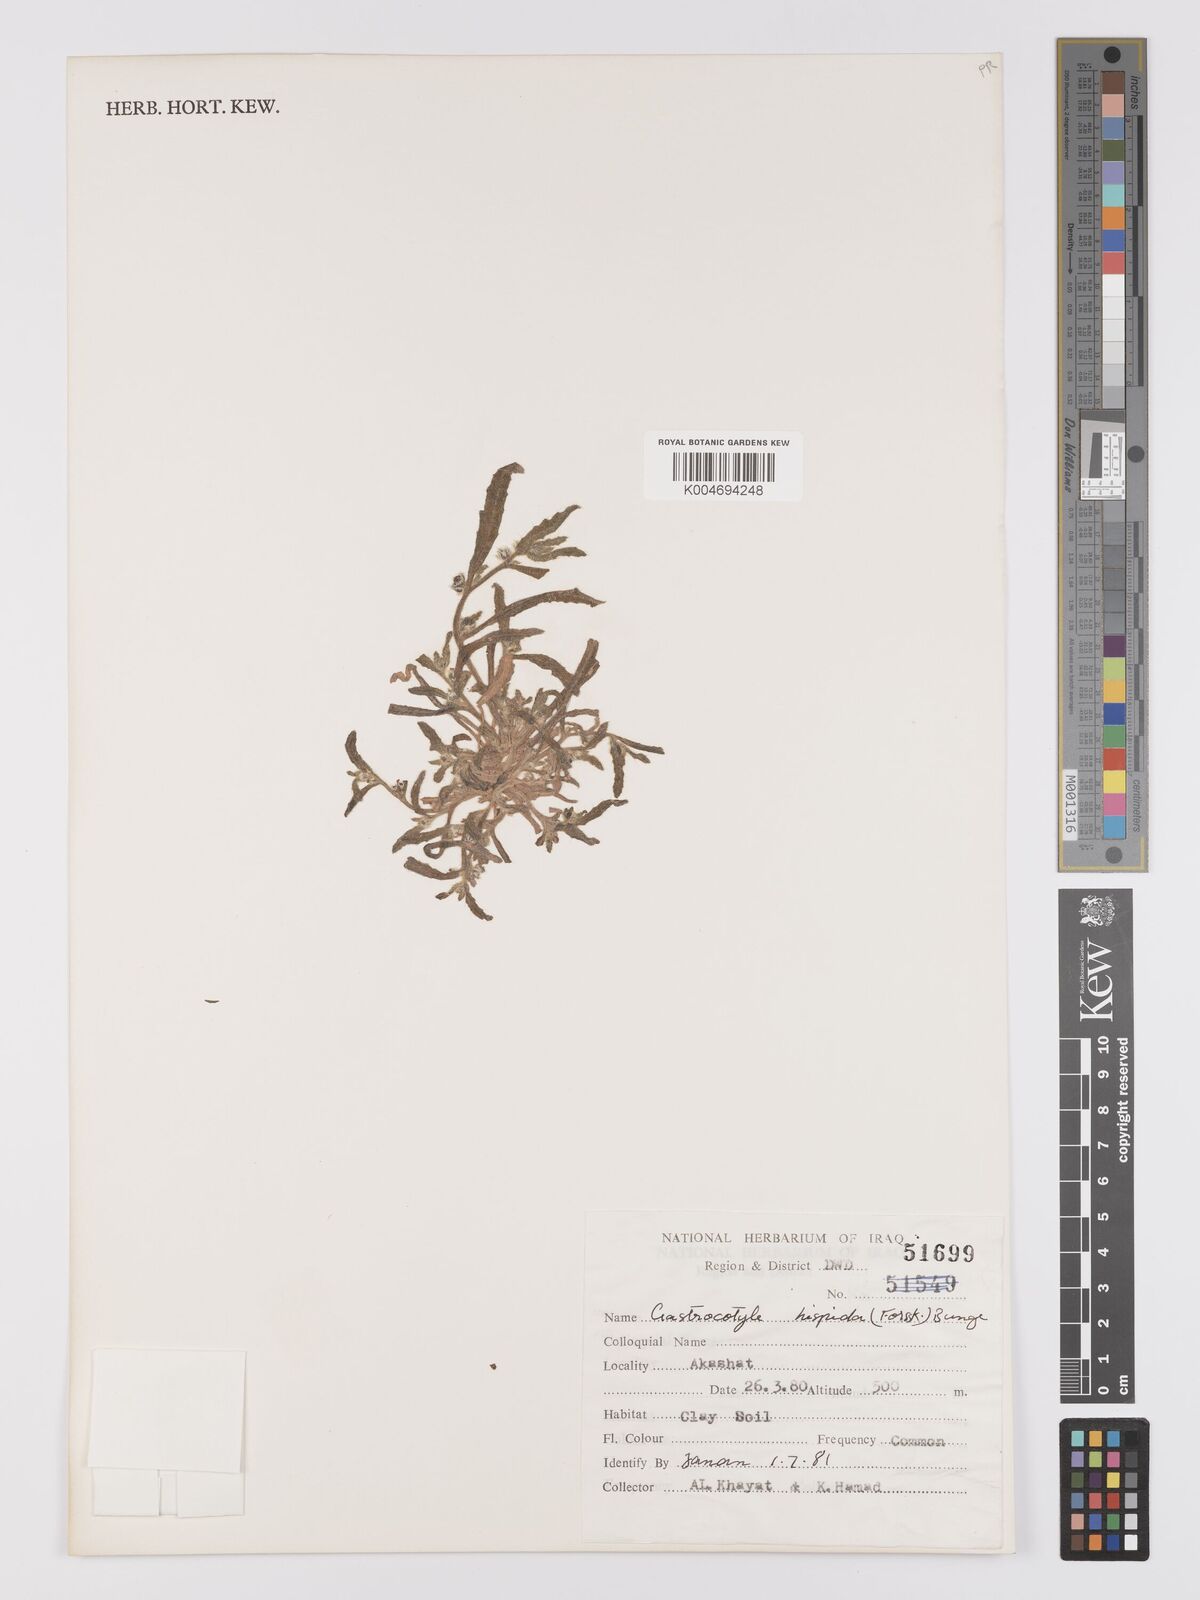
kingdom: Plantae
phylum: Tracheophyta
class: Magnoliopsida
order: Boraginales
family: Boraginaceae
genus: Gastrocotyle
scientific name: Gastrocotyle hispida
